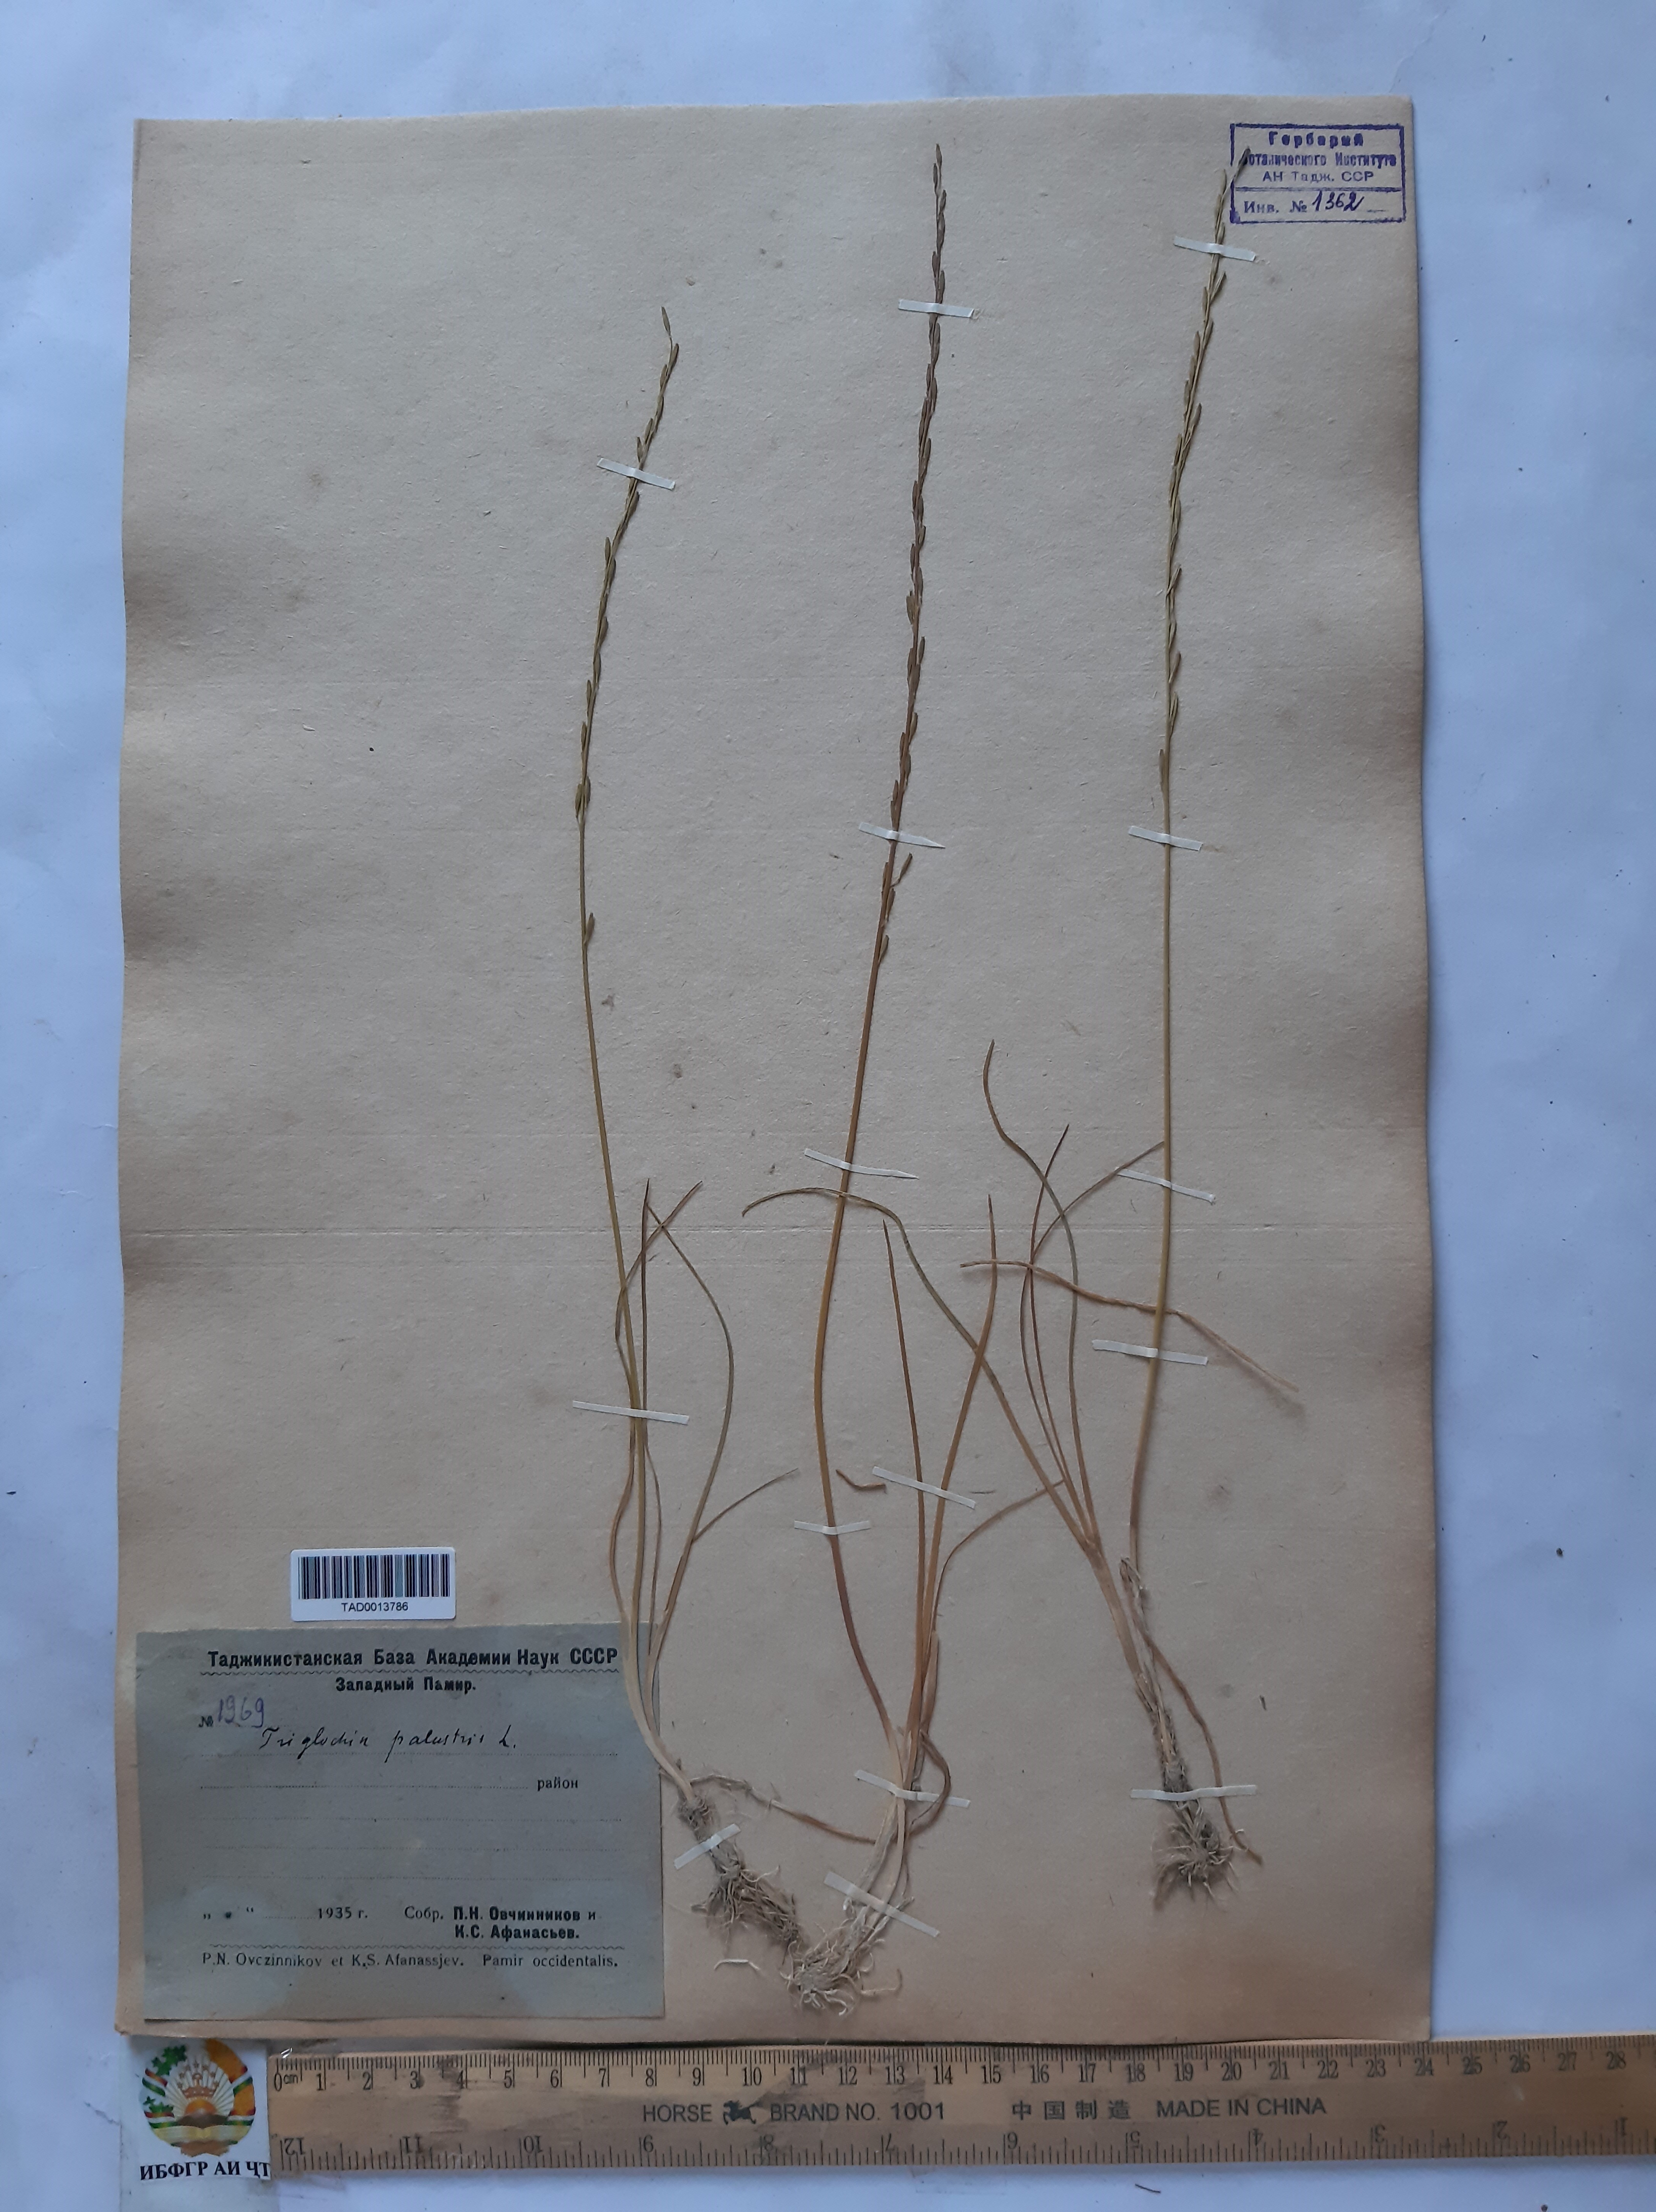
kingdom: Plantae
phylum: Tracheophyta
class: Liliopsida
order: Alismatales
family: Juncaginaceae
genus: Triglochin
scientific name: Triglochin palustris
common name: Marsh arrowgrass
